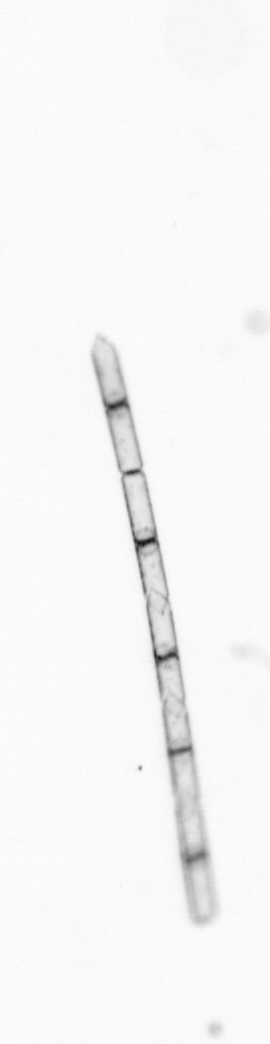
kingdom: Chromista
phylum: Ochrophyta
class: Bacillariophyceae
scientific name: Bacillariophyceae
